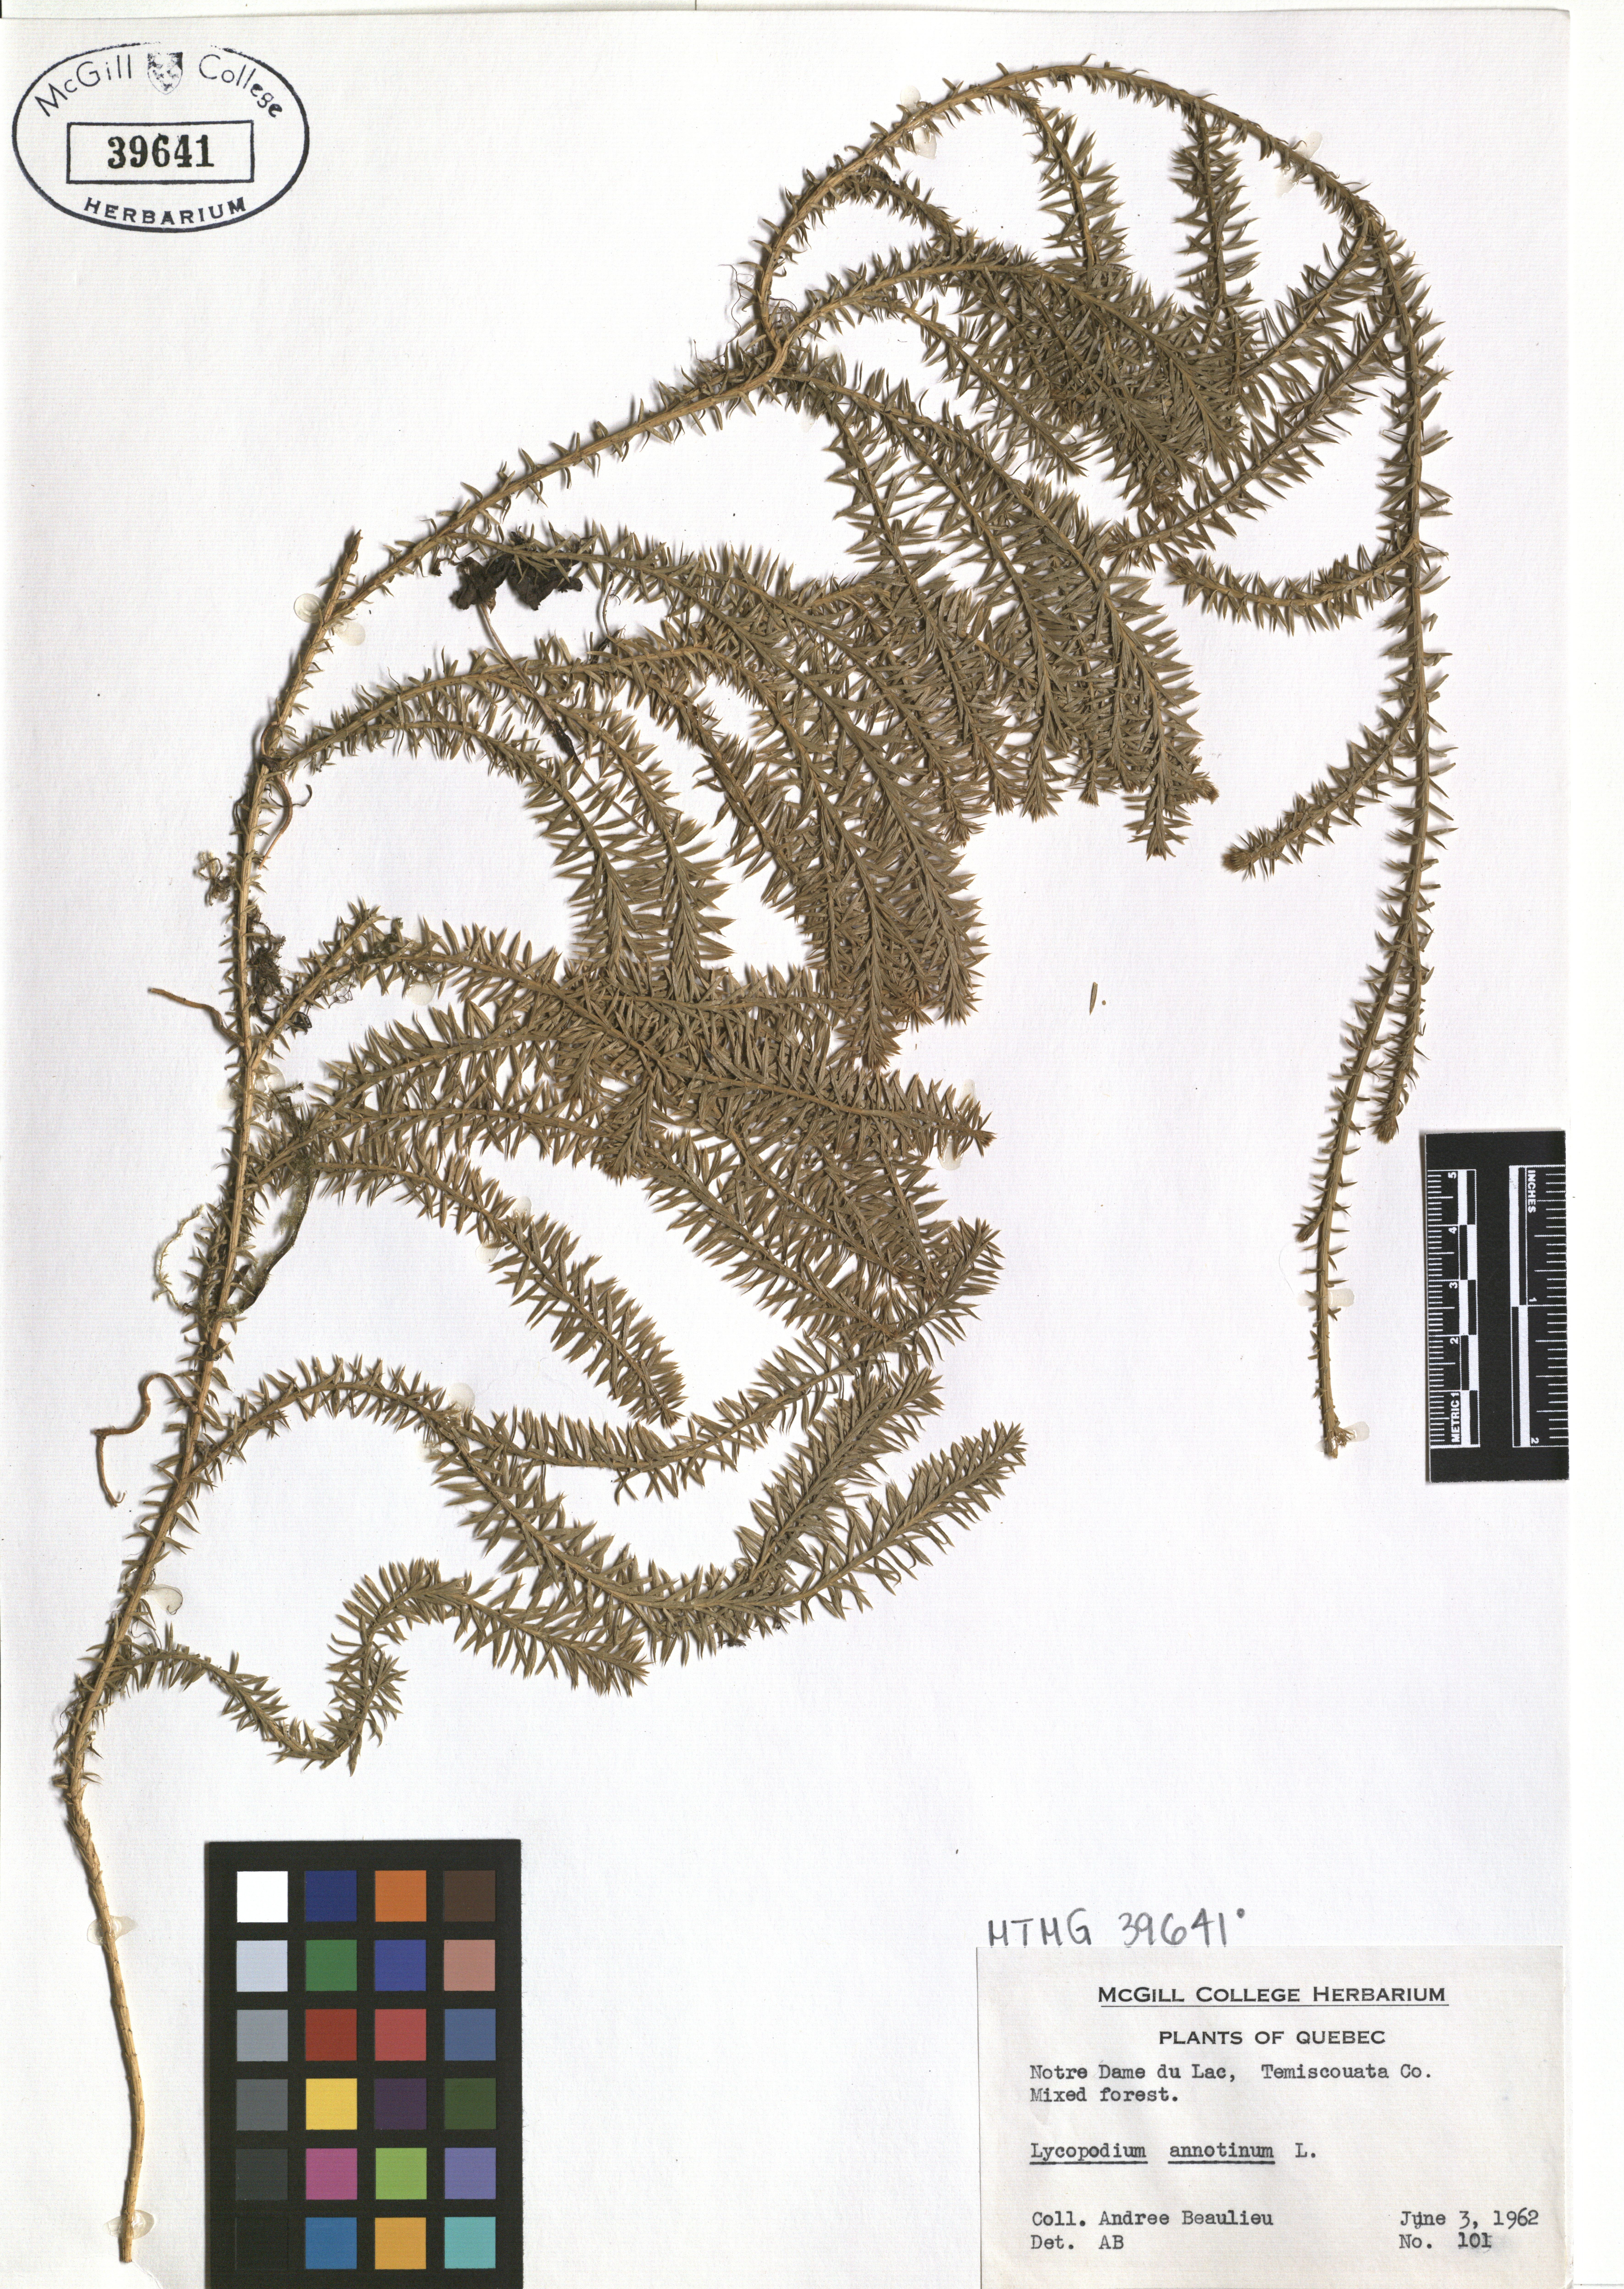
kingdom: Plantae
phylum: Tracheophyta
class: Lycopodiopsida
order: Lycopodiales
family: Lycopodiaceae
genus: Spinulum
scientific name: Spinulum annotinum
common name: Interrupted club-moss
